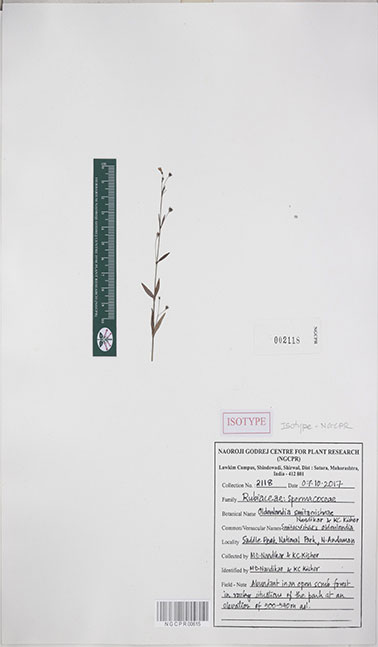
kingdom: Plantae
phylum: Tracheophyta
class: Magnoliopsida
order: Gentianales
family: Rubiaceae
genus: Oldenlandia
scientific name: Oldenlandia smitacrishnae
